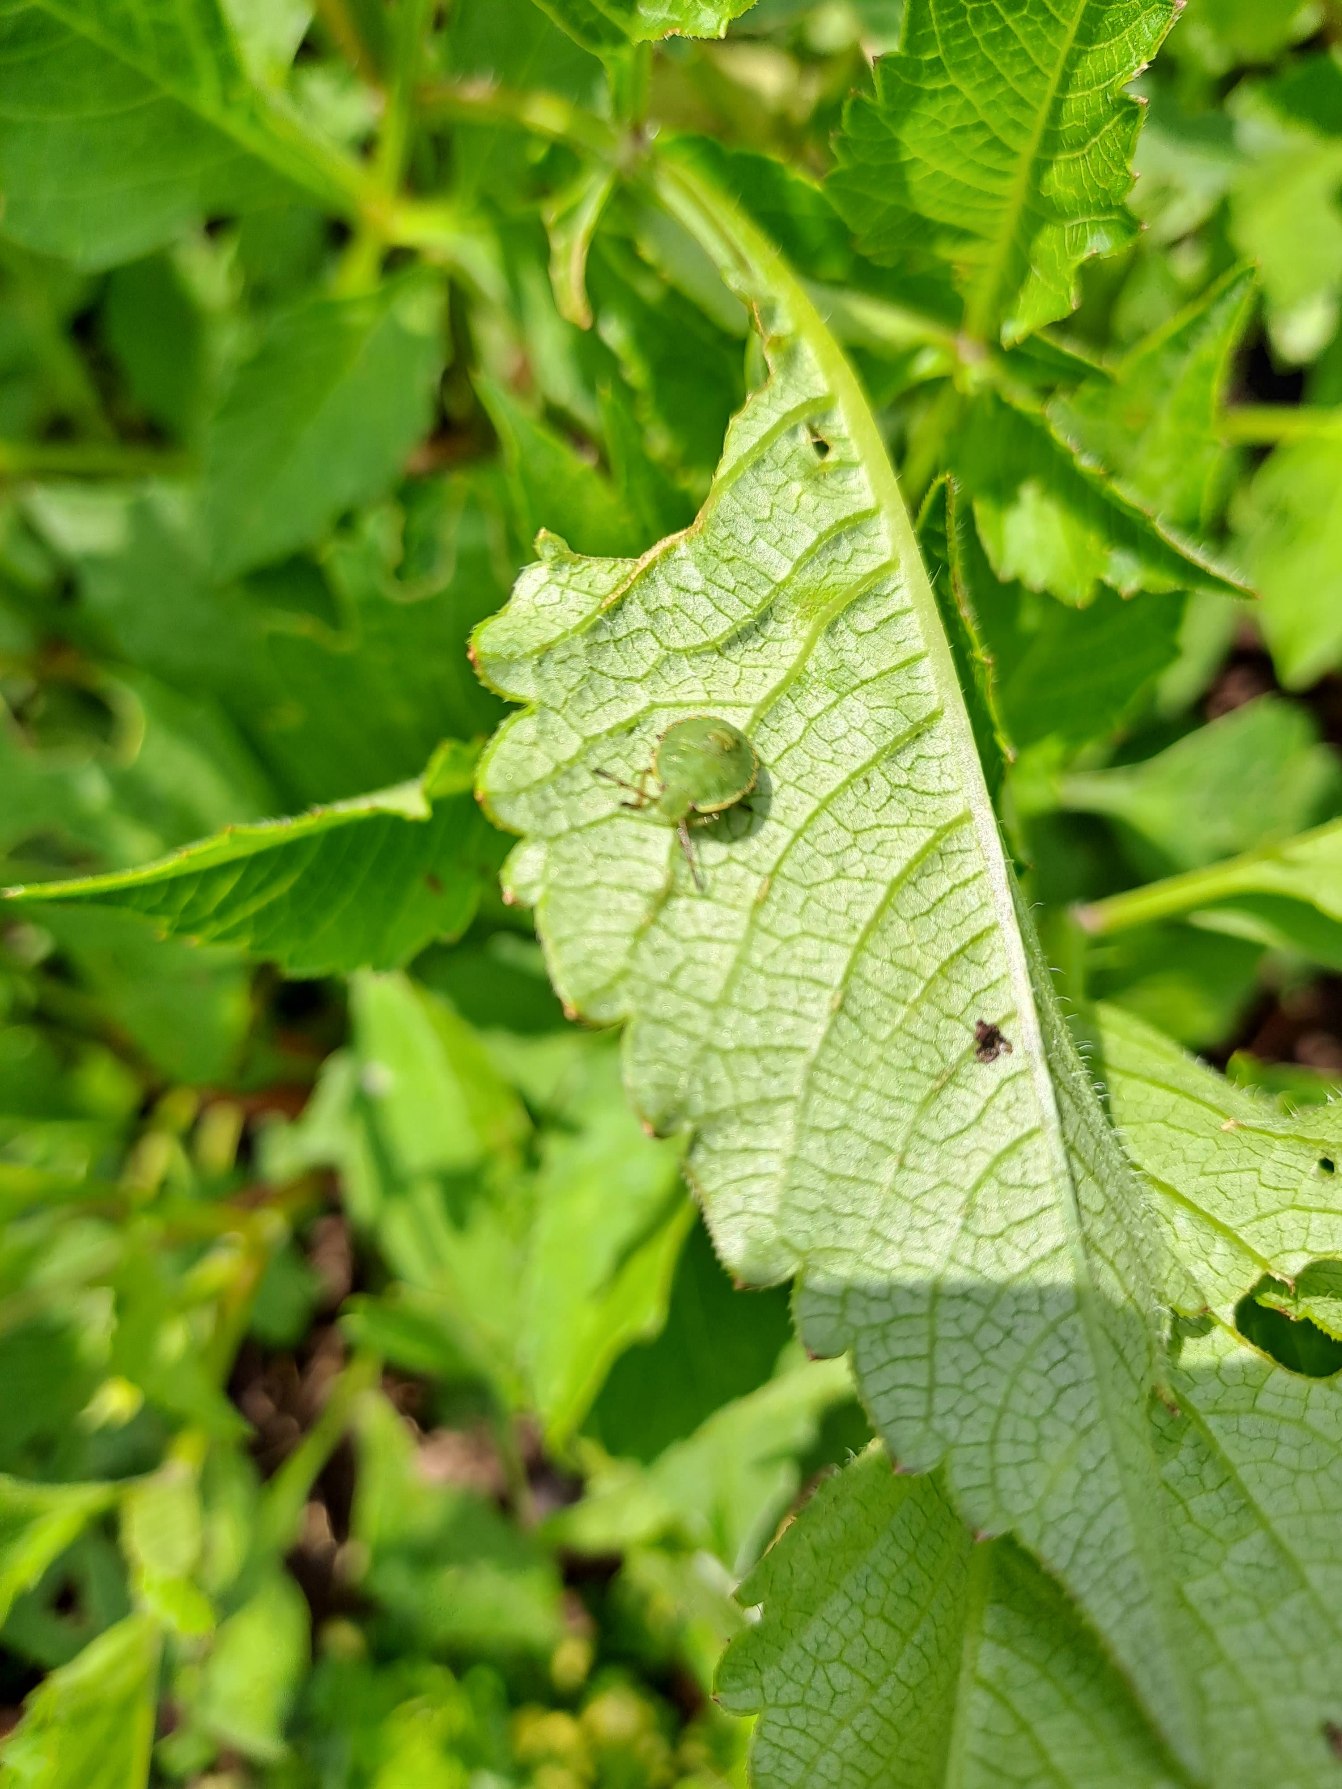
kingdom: Animalia
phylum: Arthropoda
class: Insecta
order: Hemiptera
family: Pentatomidae
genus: Palomena
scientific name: Palomena prasina
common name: Grøn bredtæge
